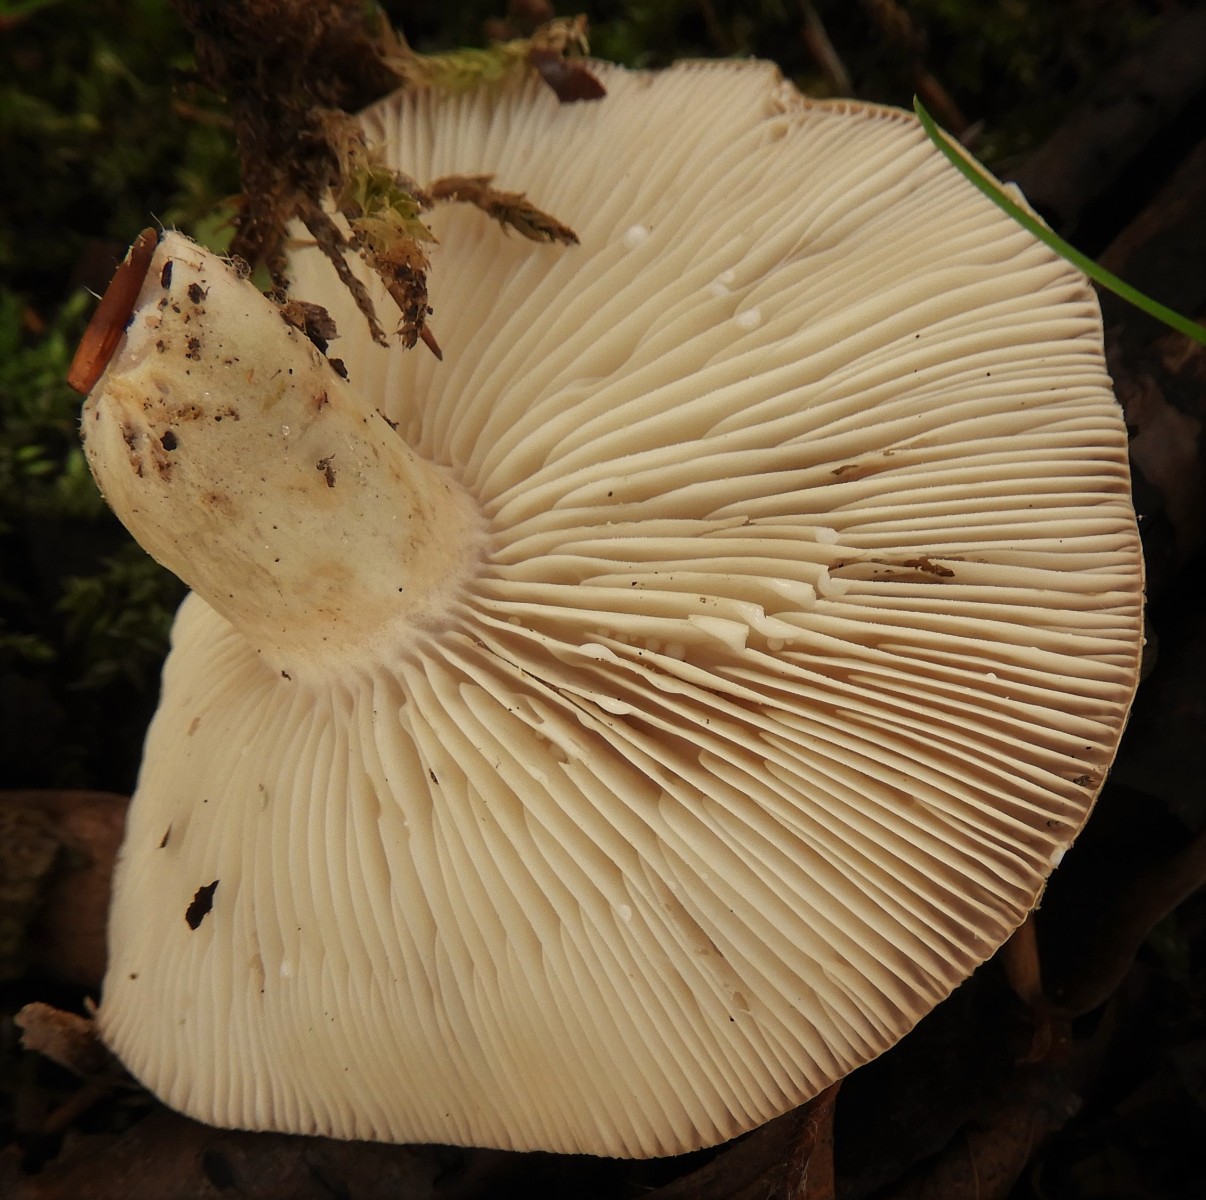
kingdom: Fungi
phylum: Basidiomycota
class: Agaricomycetes
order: Russulales
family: Russulaceae
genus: Lactarius
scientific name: Lactarius fluens
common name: lysrandet mælkehat
